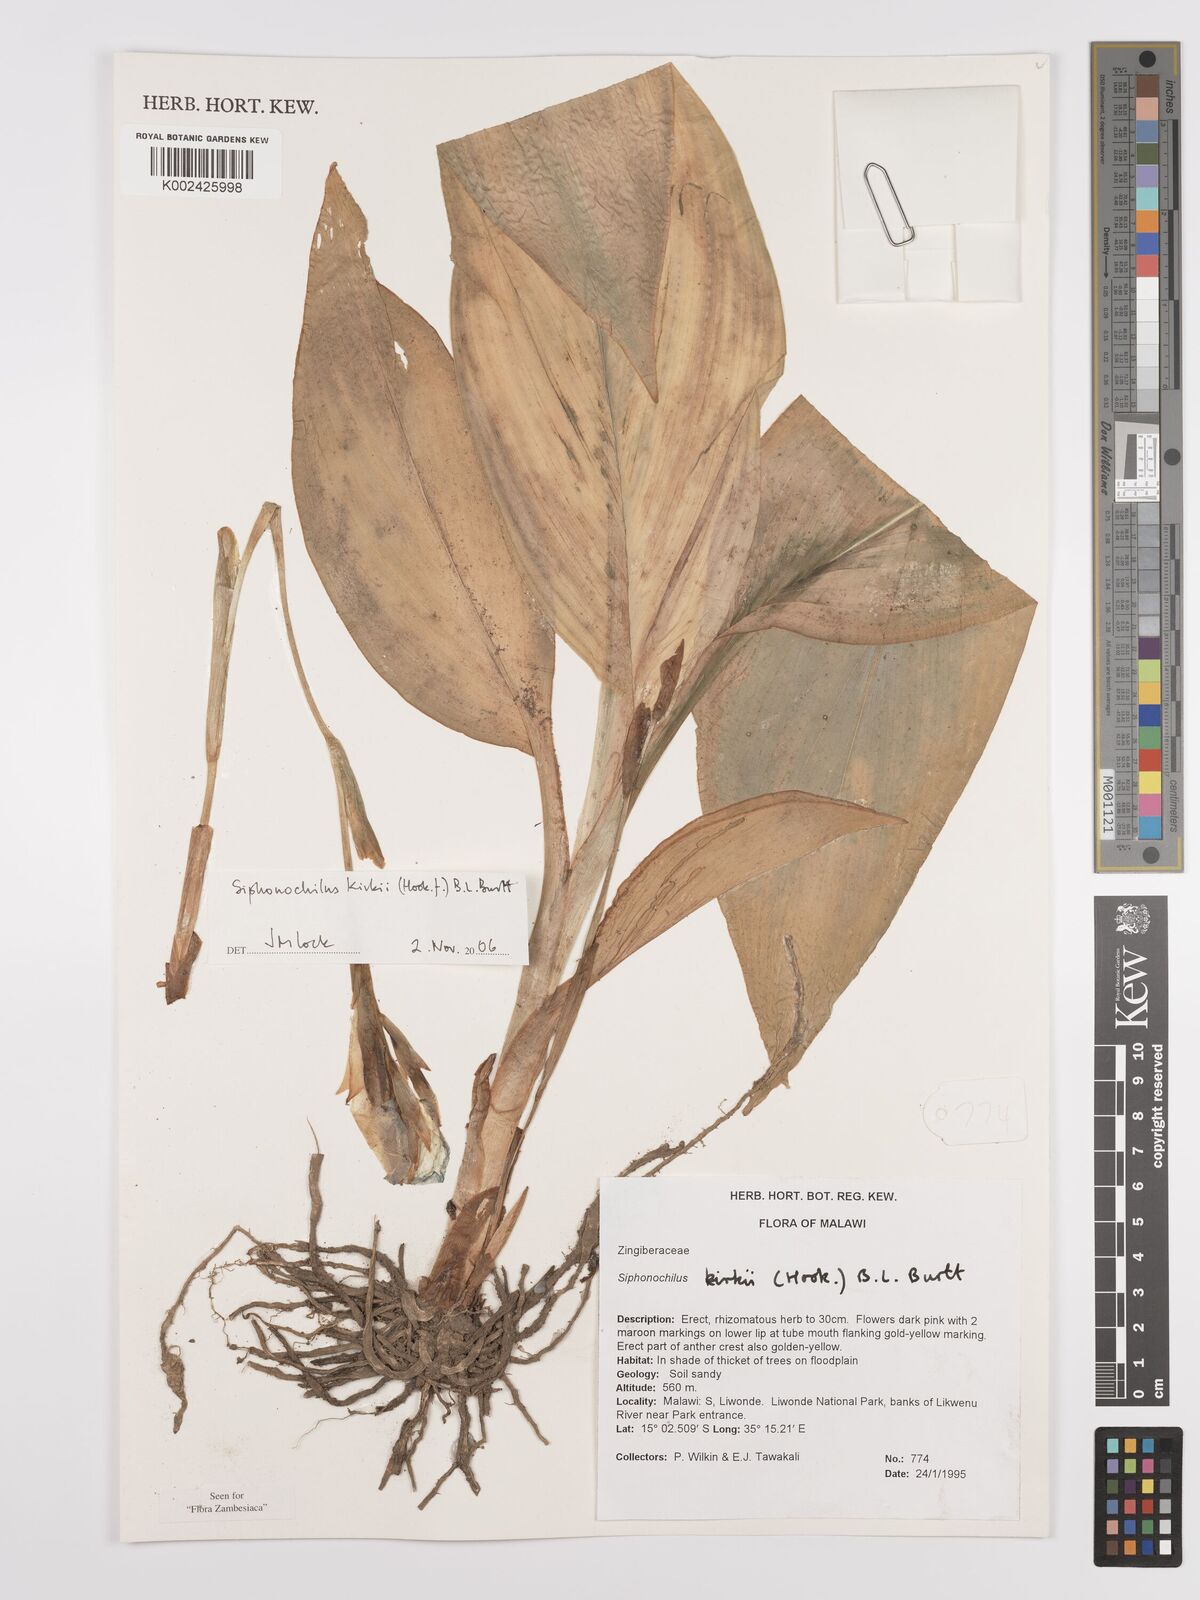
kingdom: Plantae
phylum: Tracheophyta
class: Liliopsida
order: Zingiberales
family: Zingiberaceae
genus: Siphonochilus
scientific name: Siphonochilus kirkii
